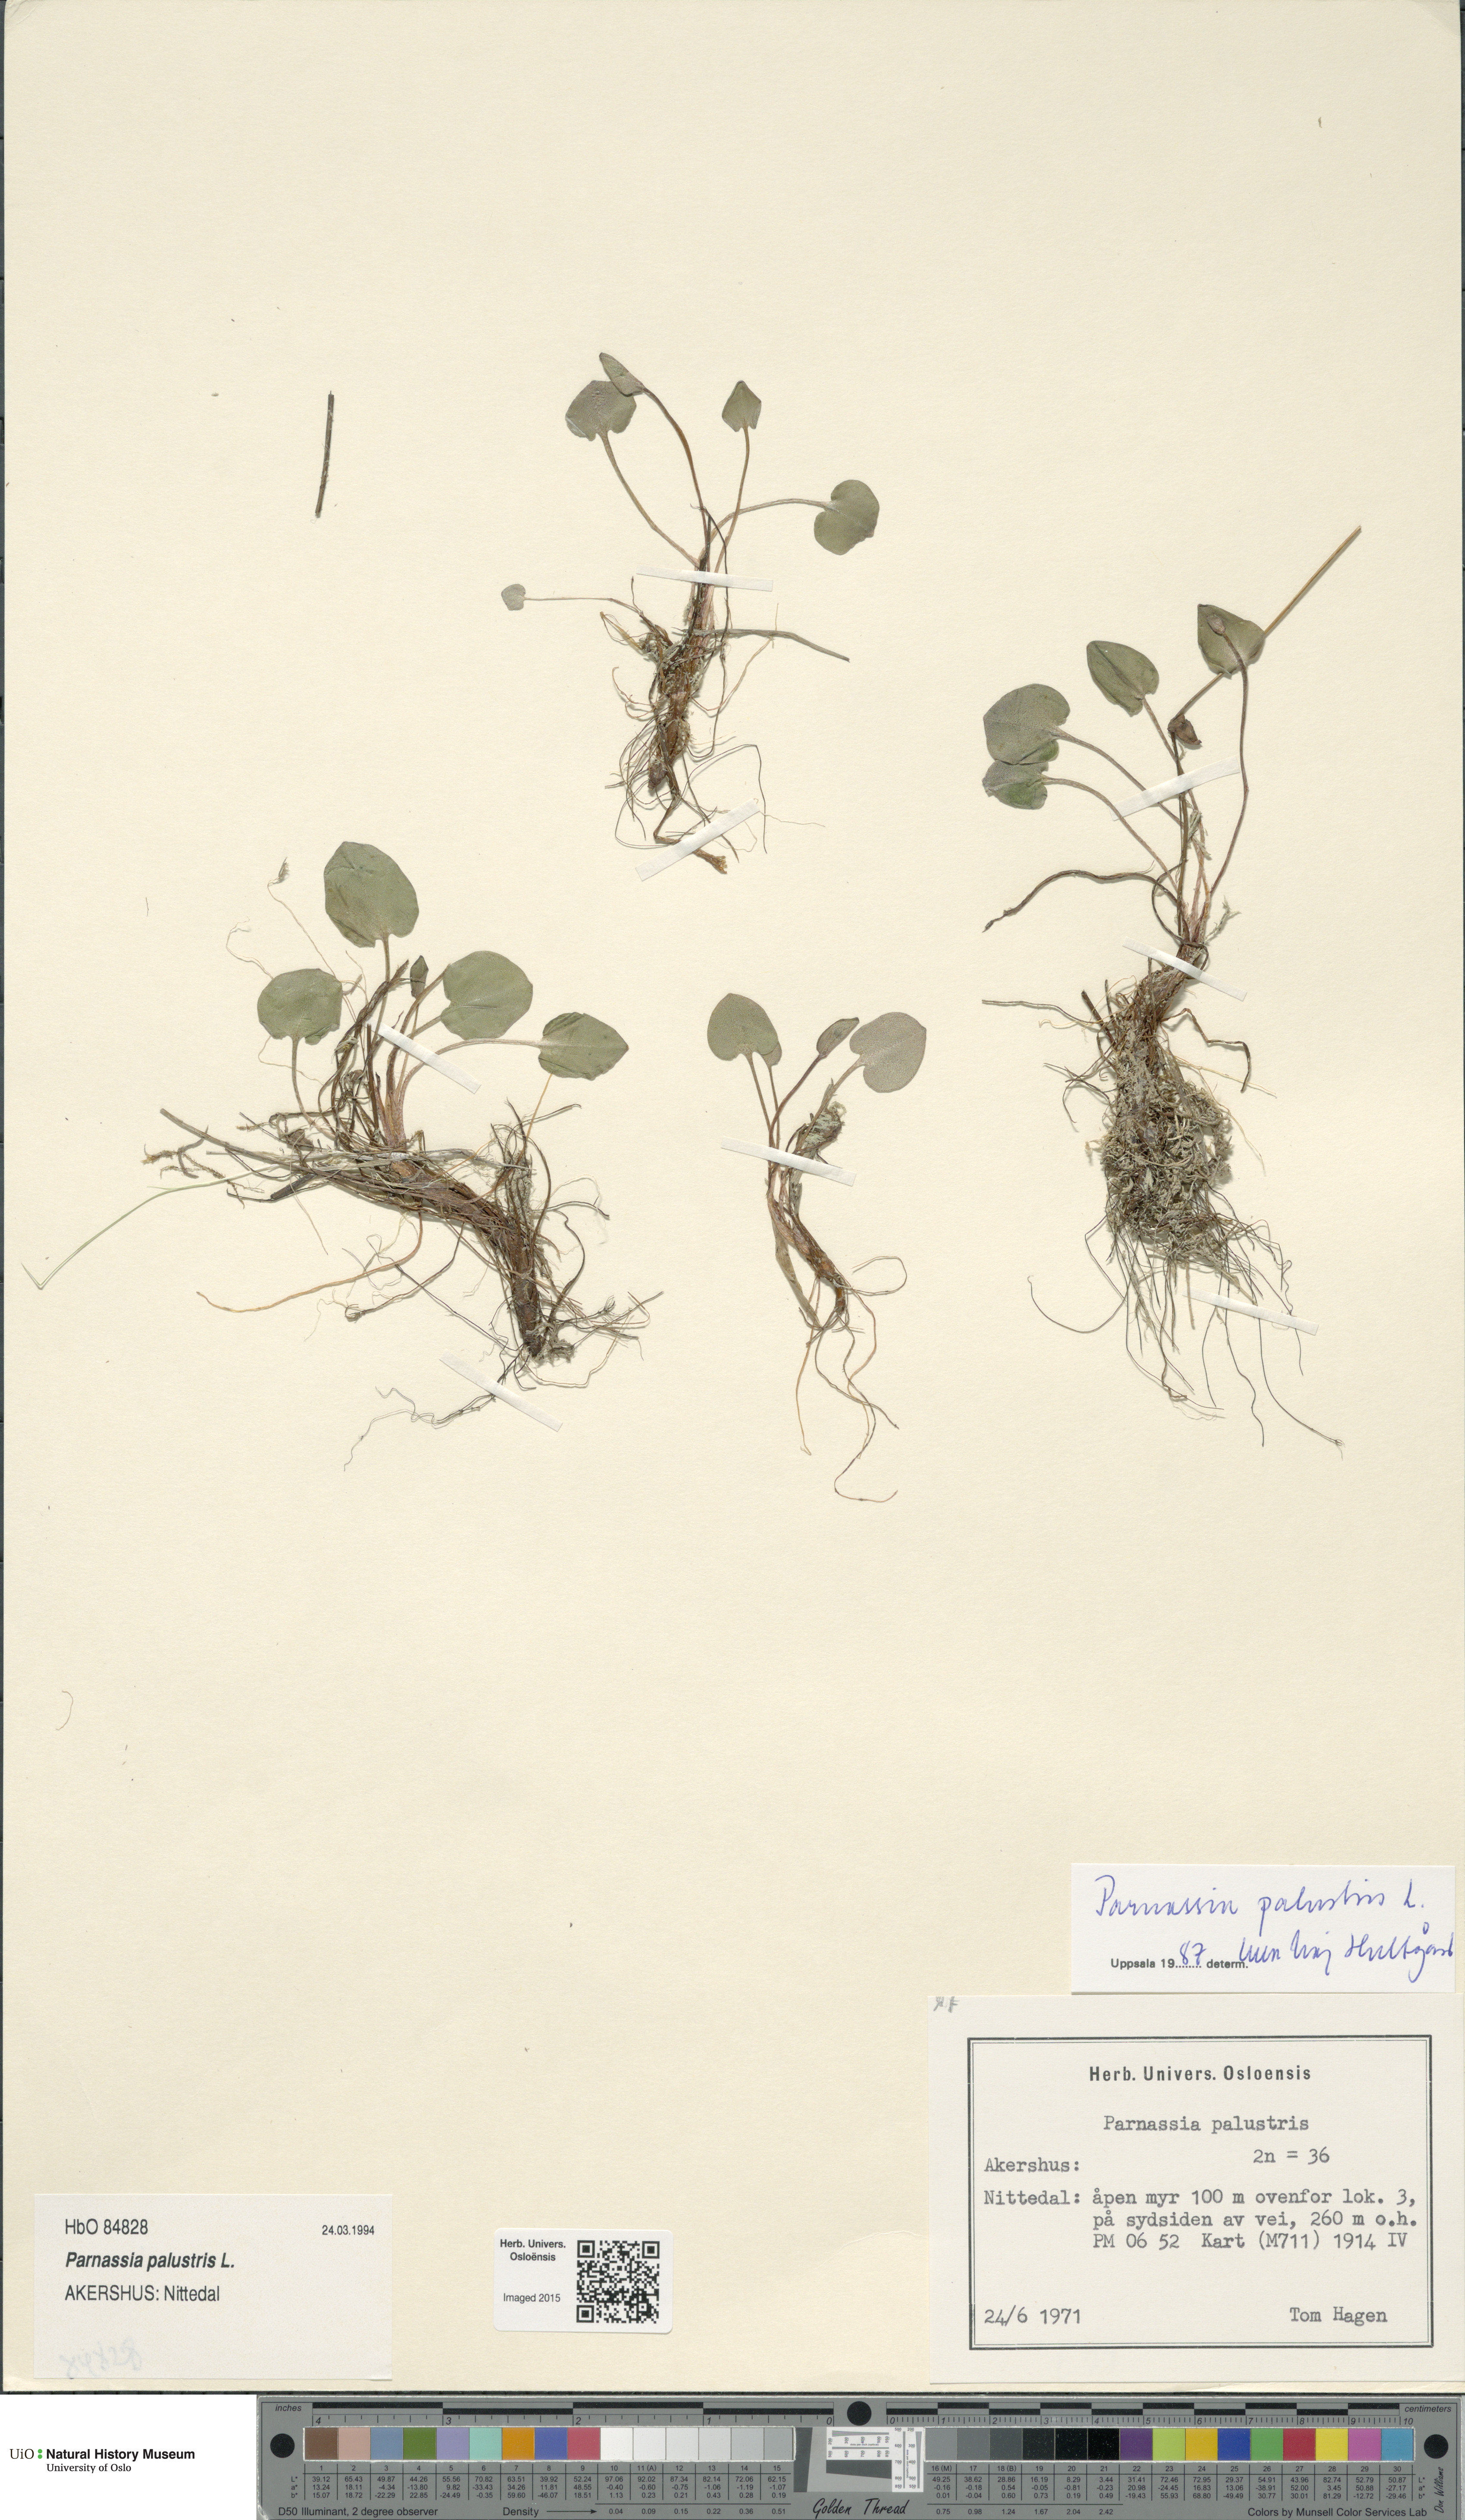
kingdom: Plantae
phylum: Tracheophyta
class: Magnoliopsida
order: Celastrales
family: Parnassiaceae
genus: Parnassia
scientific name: Parnassia palustris
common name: Grass-of-parnassus
